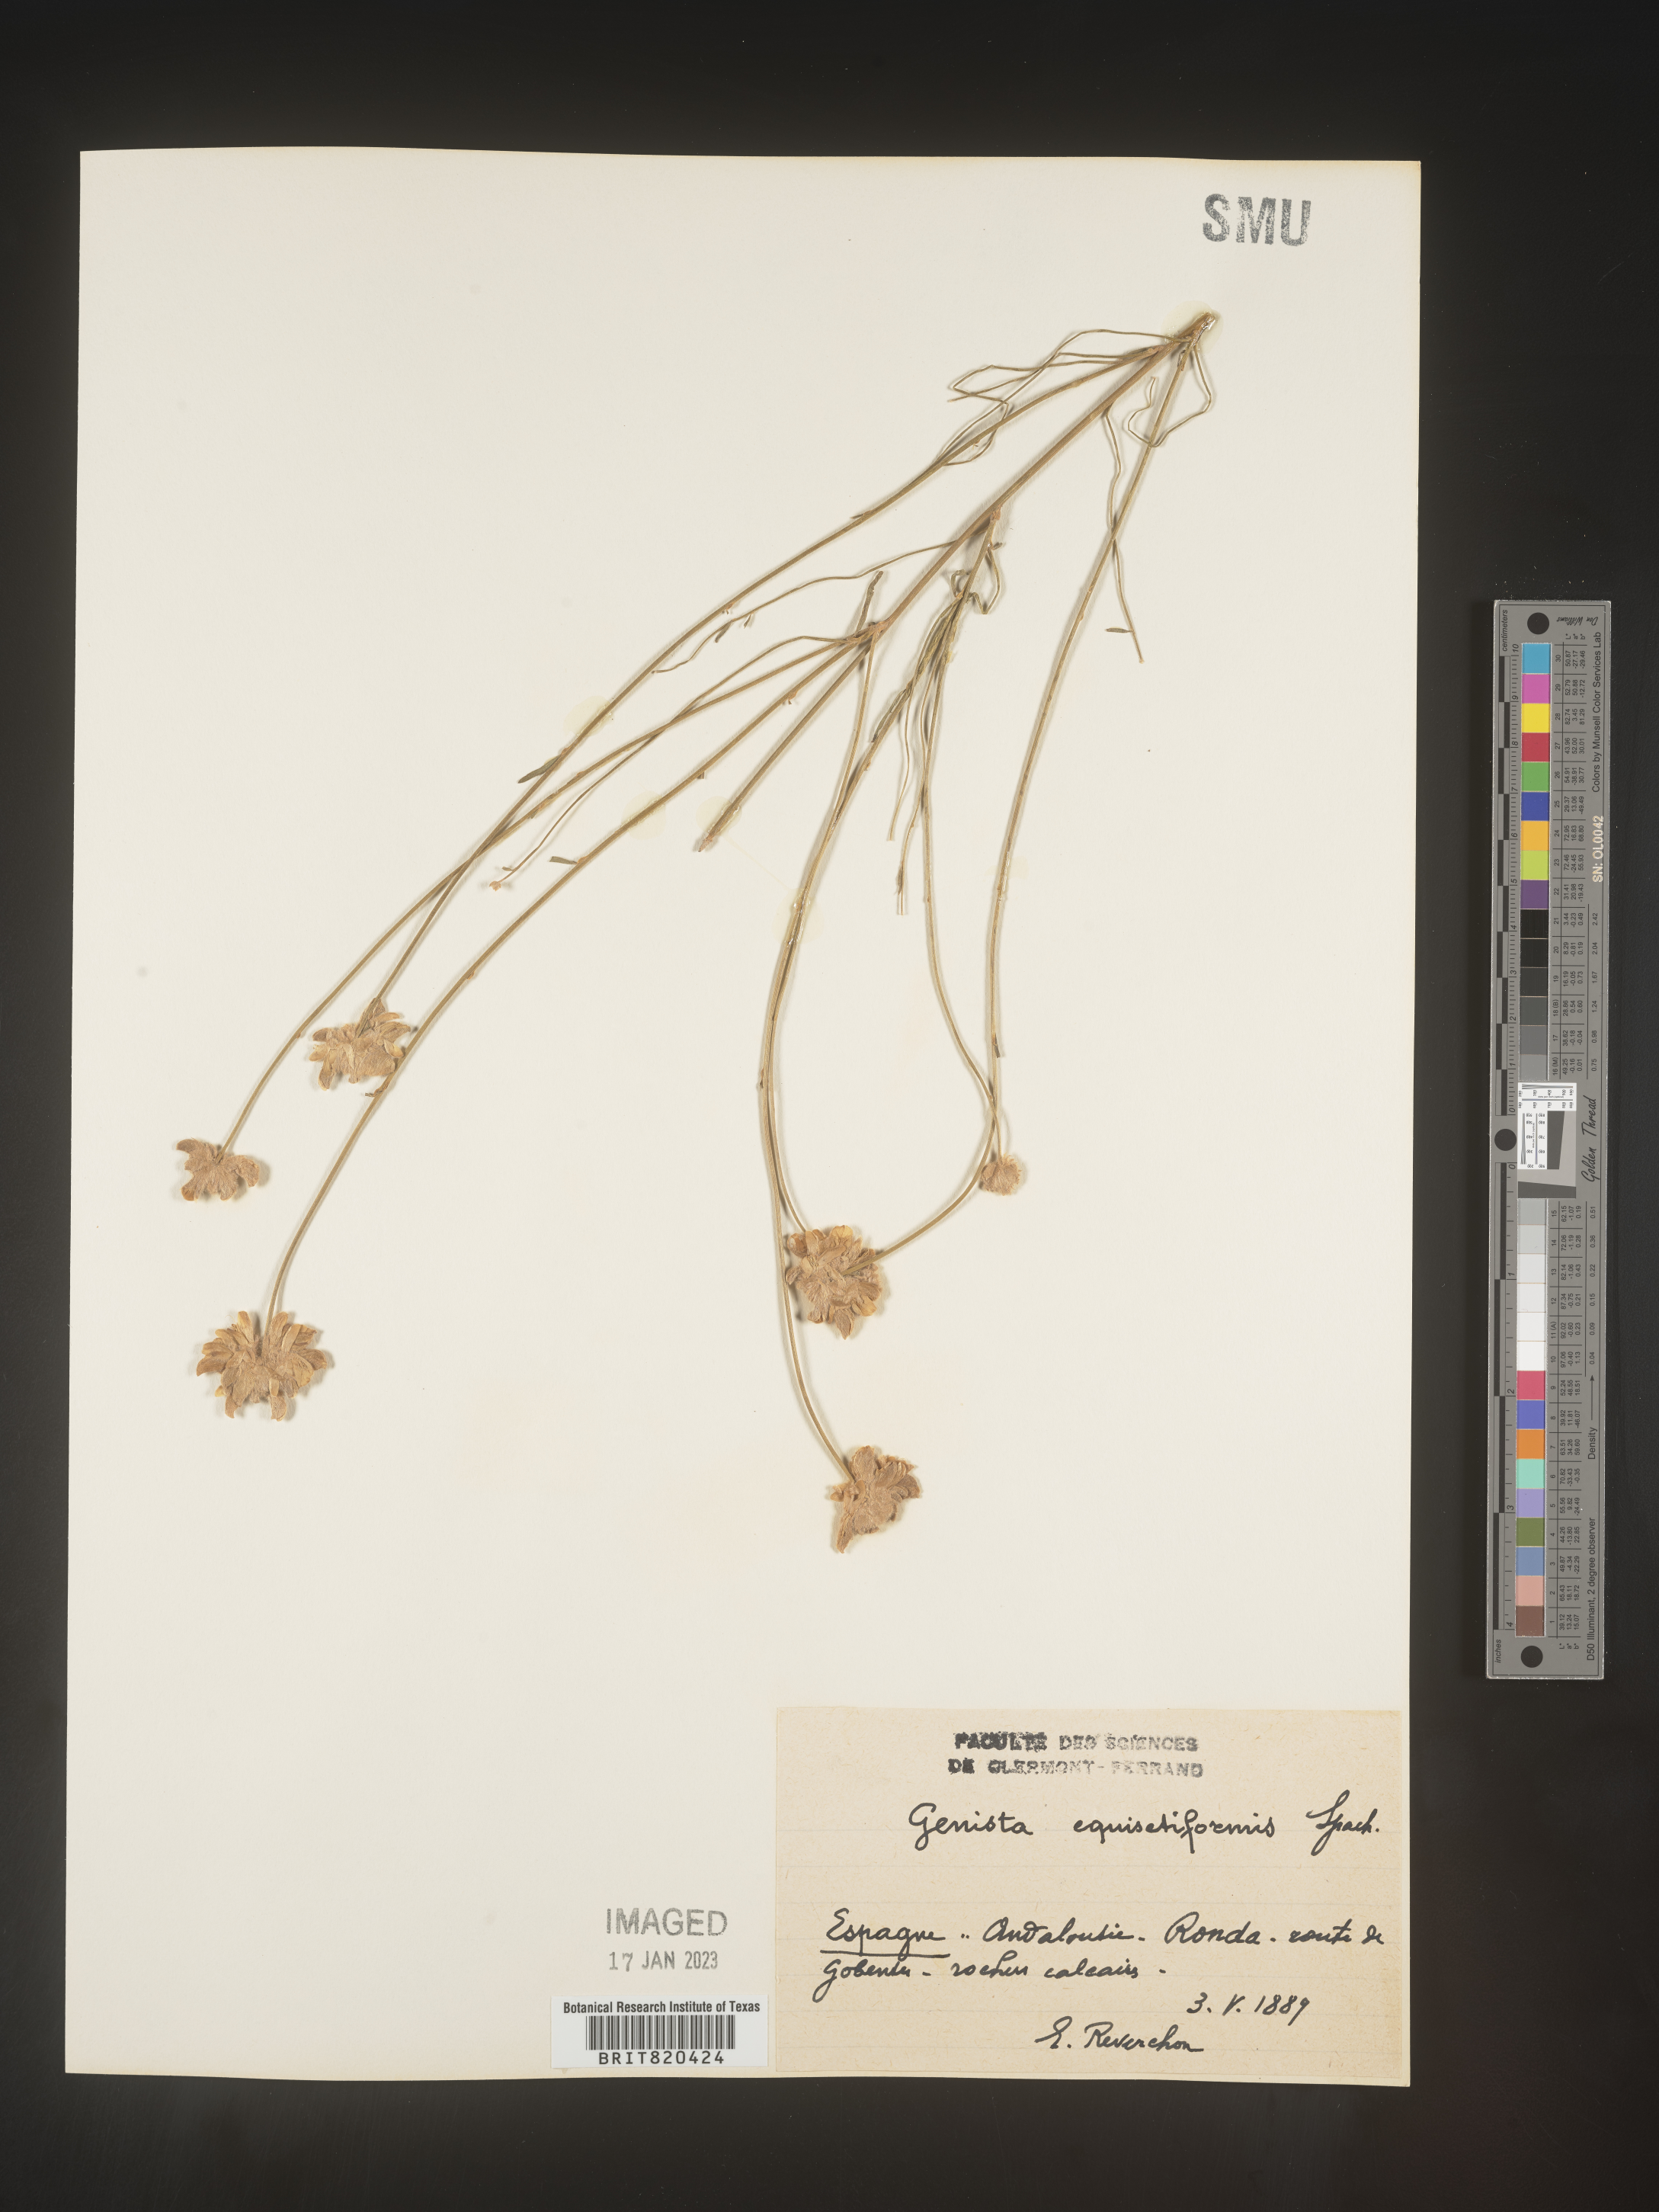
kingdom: Plantae
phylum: Tracheophyta
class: Magnoliopsida
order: Fabales
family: Fabaceae
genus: Genista
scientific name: Genista
